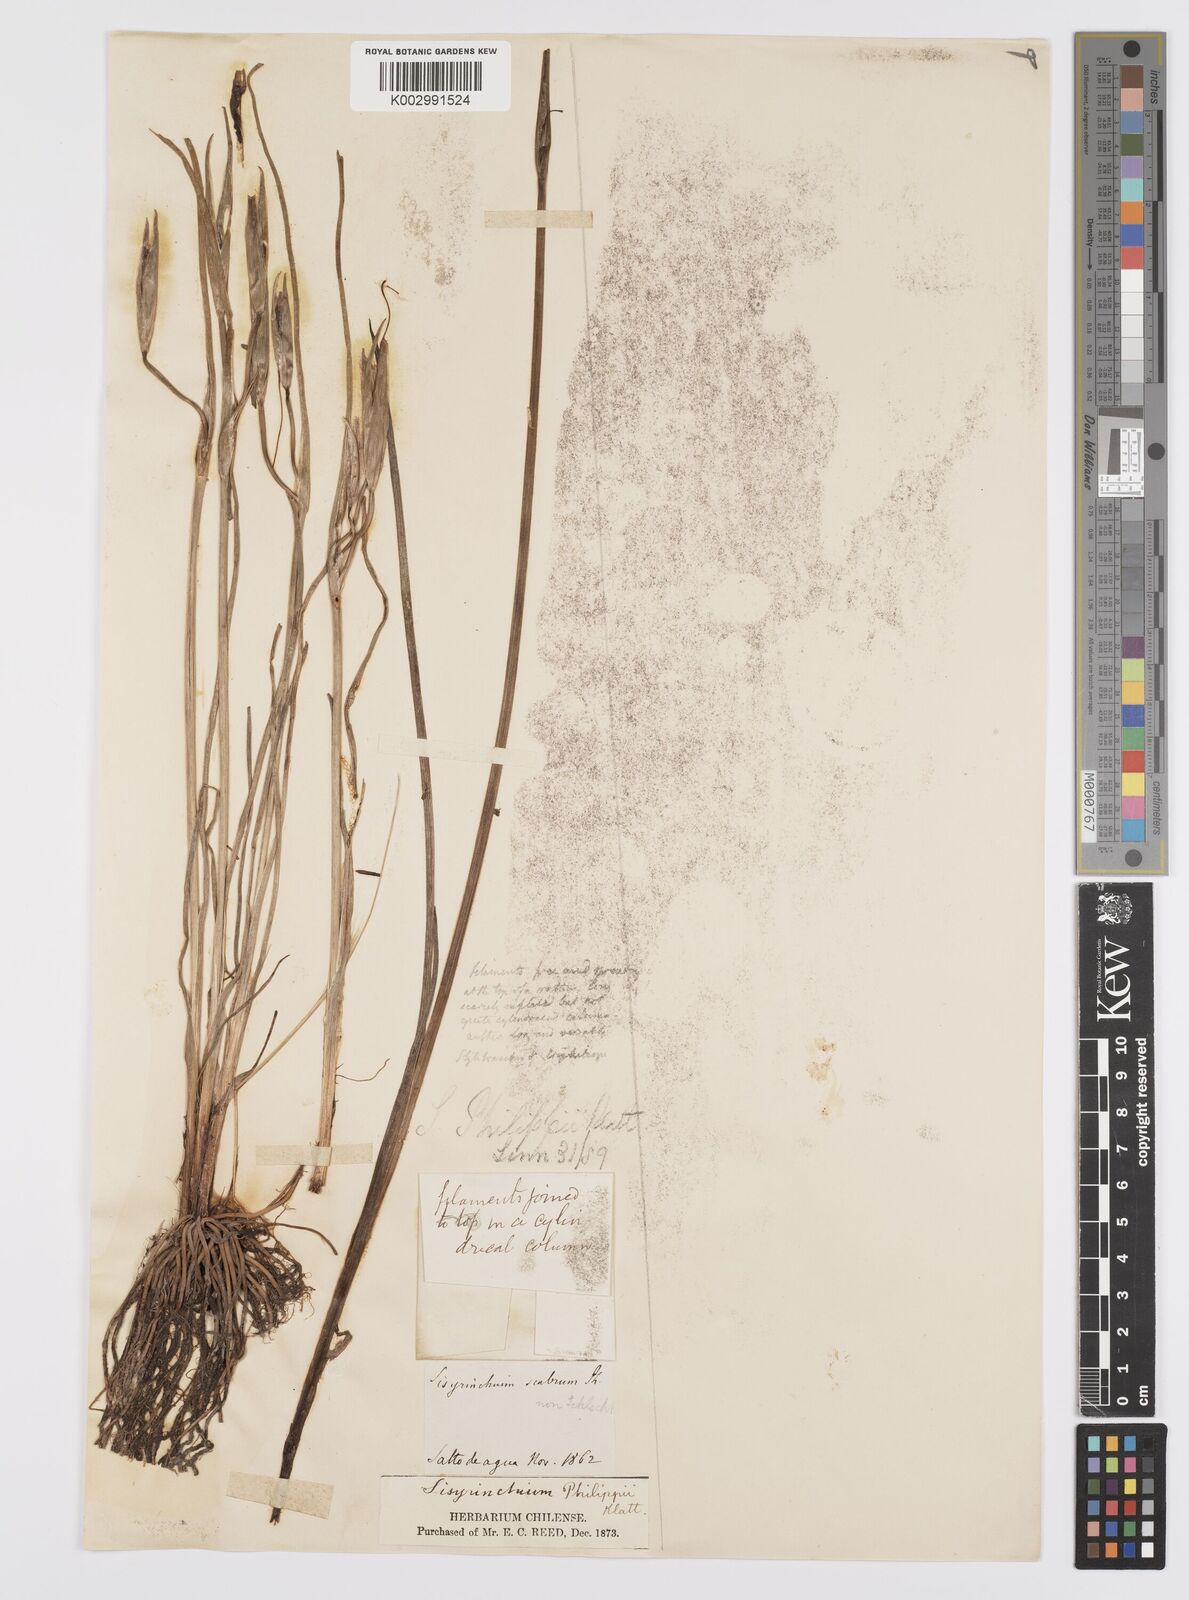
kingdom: Plantae
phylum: Tracheophyta
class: Liliopsida
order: Asparagales
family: Iridaceae
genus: Olsynium
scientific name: Olsynium philippii
